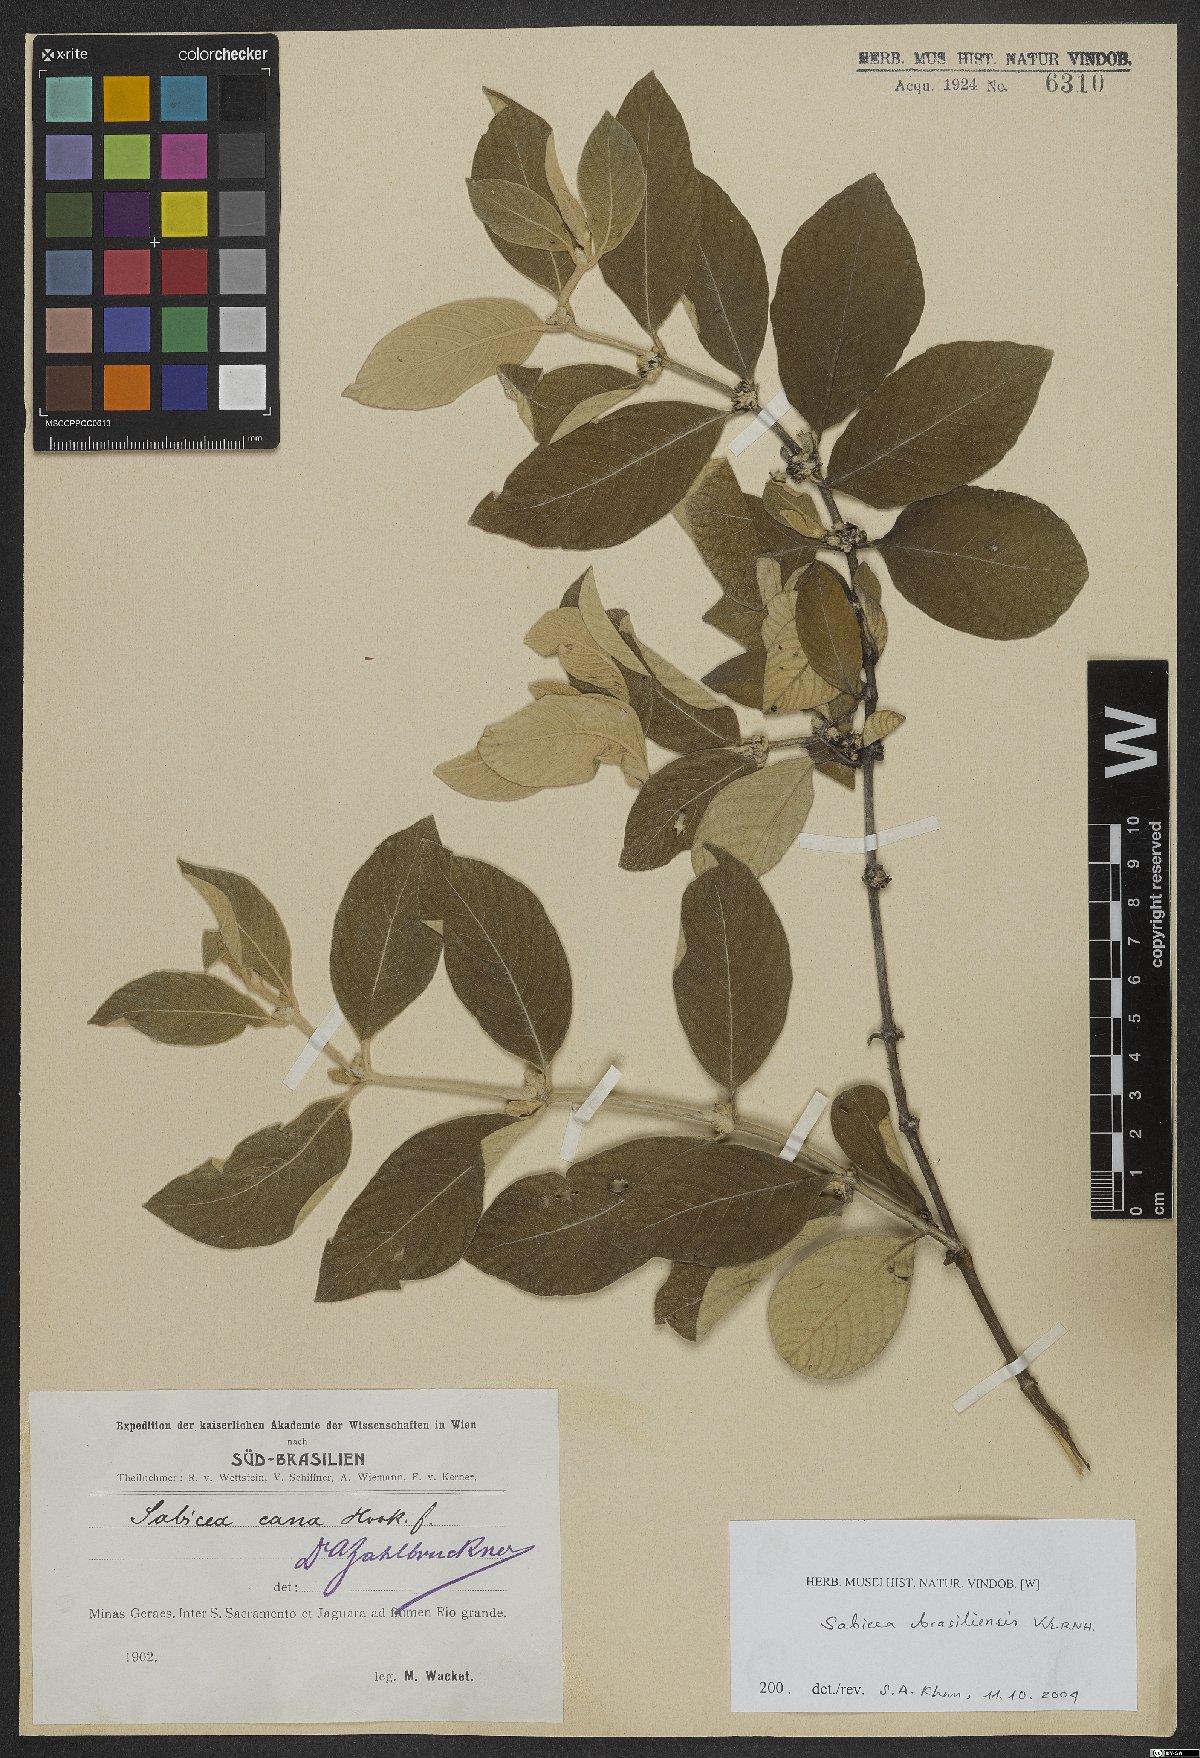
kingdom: Plantae
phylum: Tracheophyta
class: Magnoliopsida
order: Gentianales
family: Rubiaceae
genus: Sabicea
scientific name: Sabicea brasiliensis
